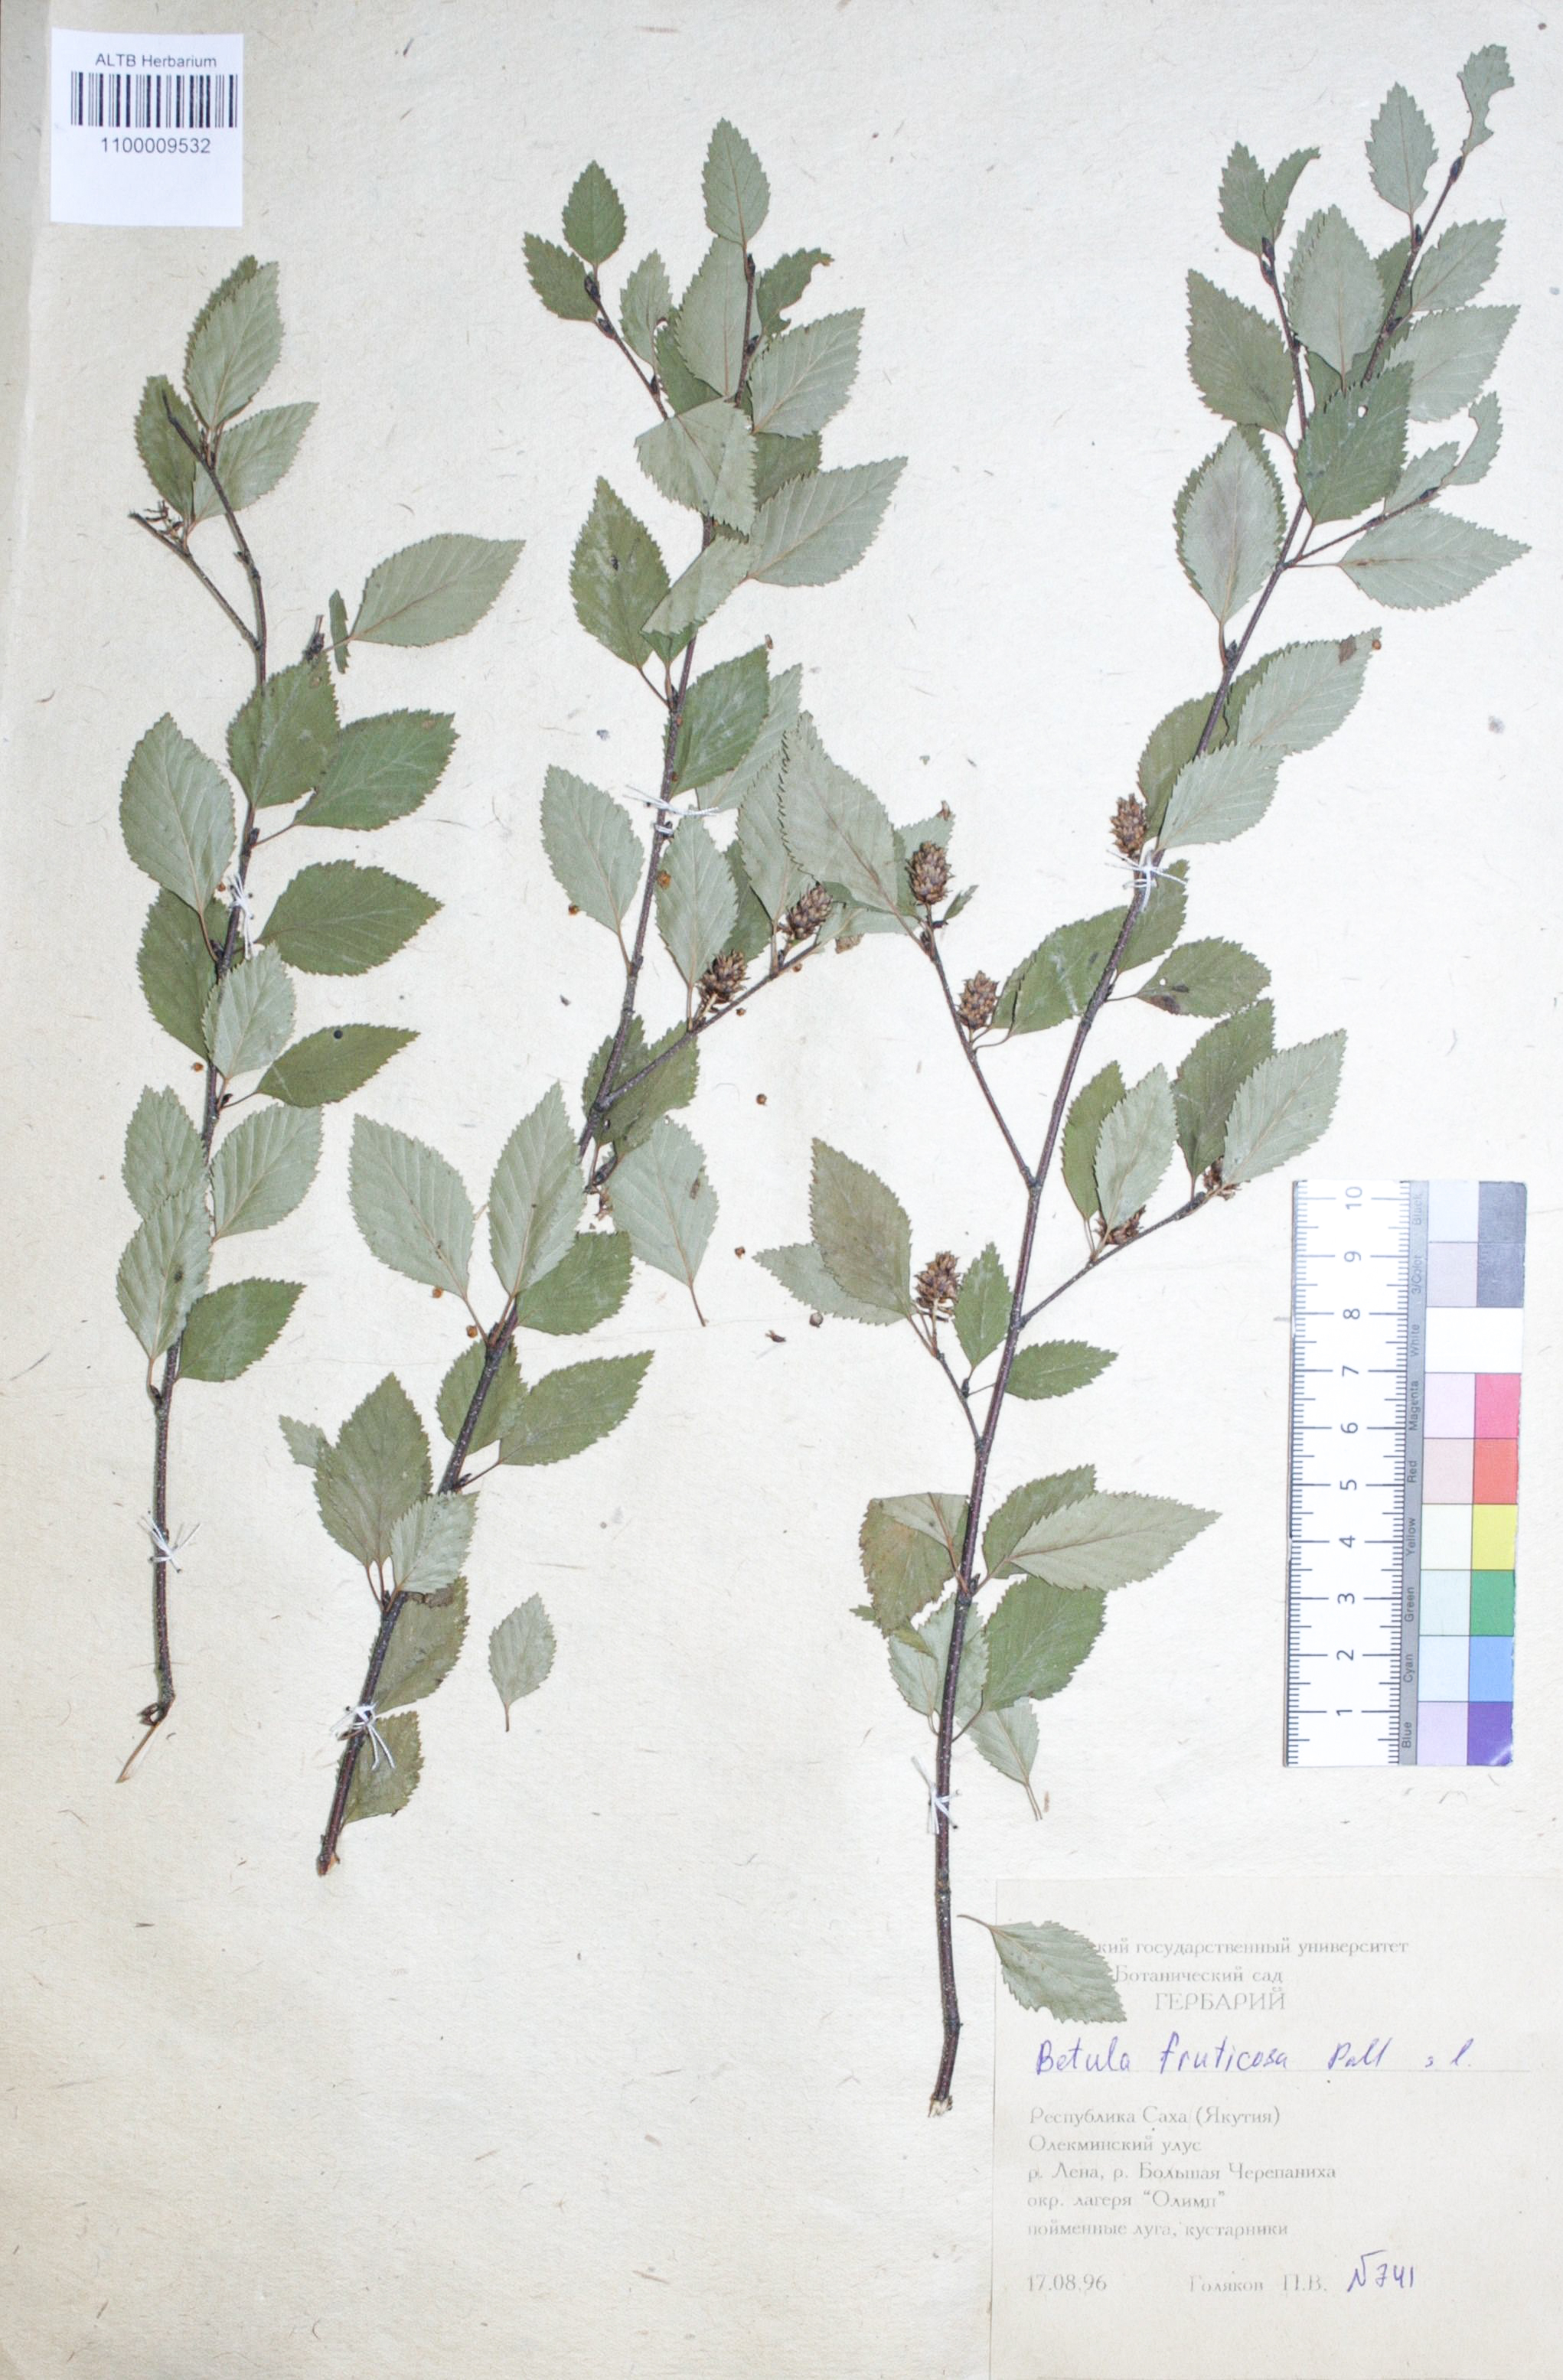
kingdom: Plantae
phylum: Tracheophyta
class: Magnoliopsida
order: Fagales
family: Betulaceae
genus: Betula
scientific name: Betula fruticosa
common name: Japanese bog birch
